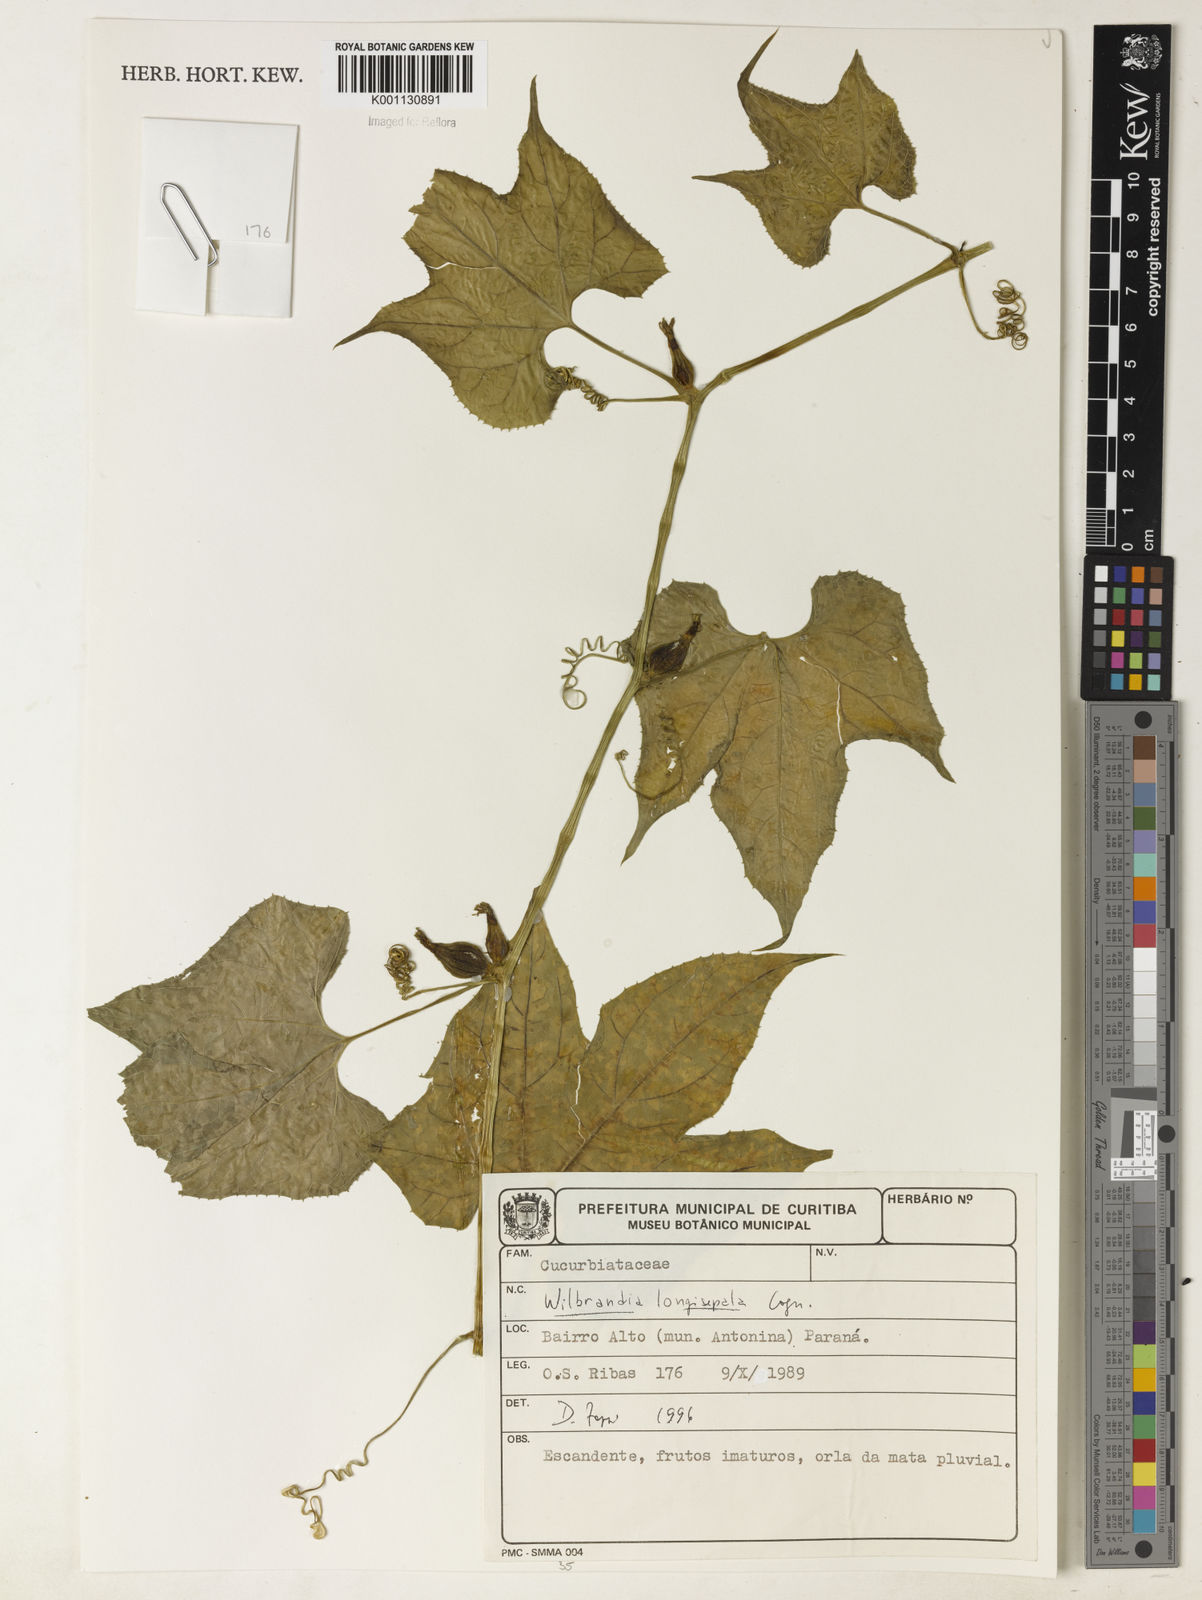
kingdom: Plantae
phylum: Tracheophyta
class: Magnoliopsida
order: Cucurbitales
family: Cucurbitaceae
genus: Wilbrandia
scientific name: Wilbrandia longisepala
